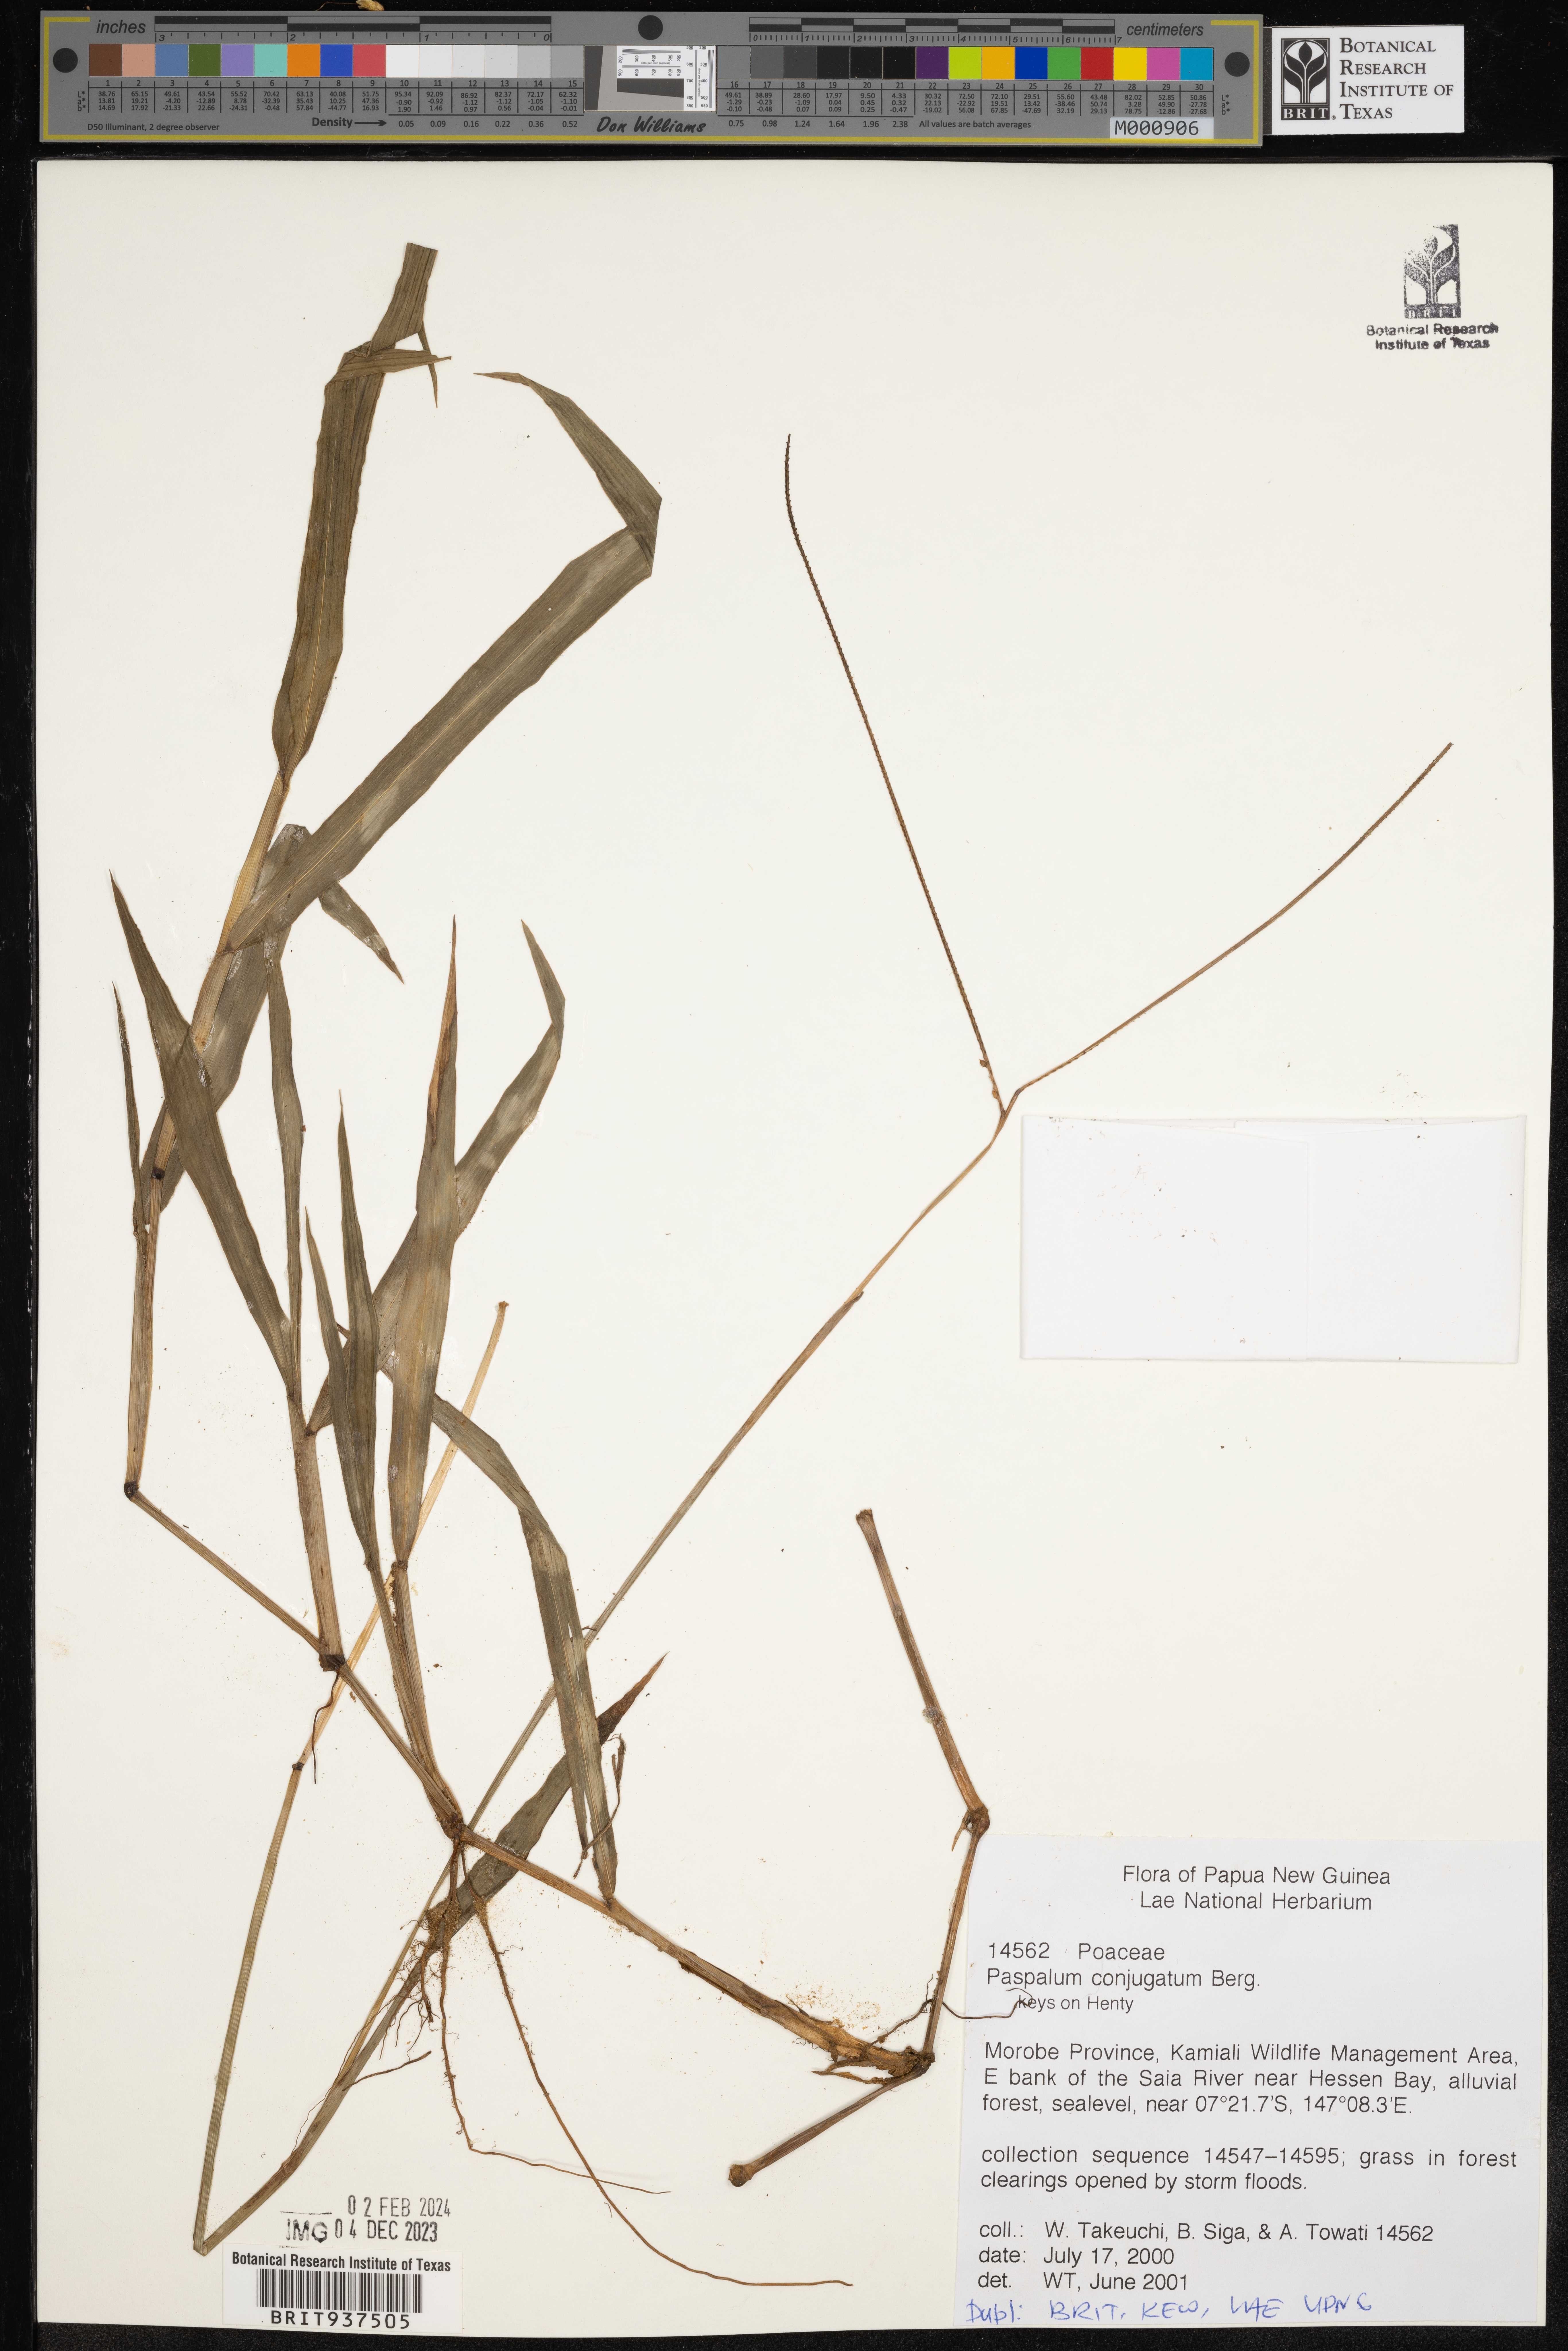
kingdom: Plantae
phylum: Tracheophyta
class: Liliopsida
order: Poales
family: Poaceae
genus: Paspalum
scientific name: Paspalum
